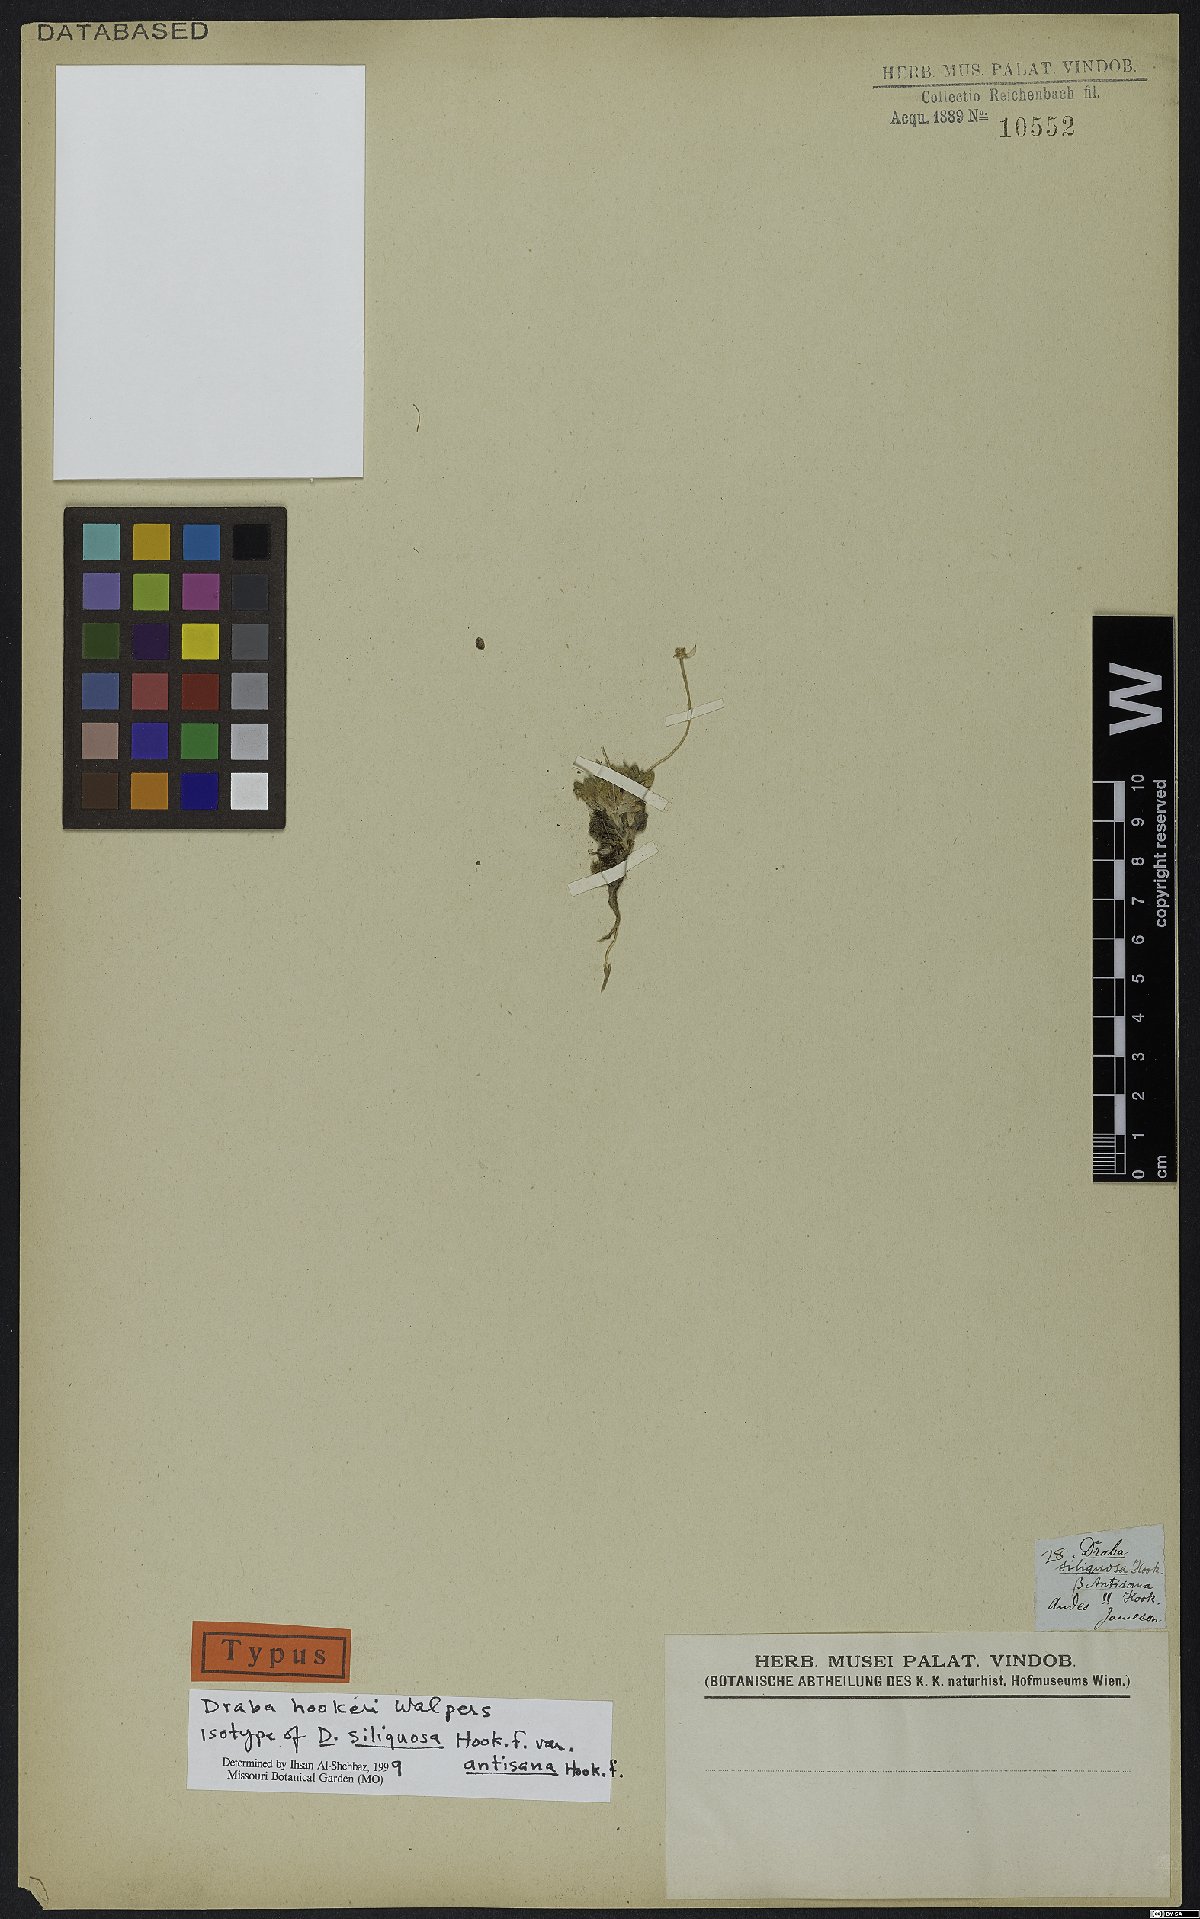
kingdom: Plantae
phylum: Tracheophyta
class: Magnoliopsida
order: Brassicales
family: Brassicaceae
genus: Draba
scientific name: Draba hookeri
